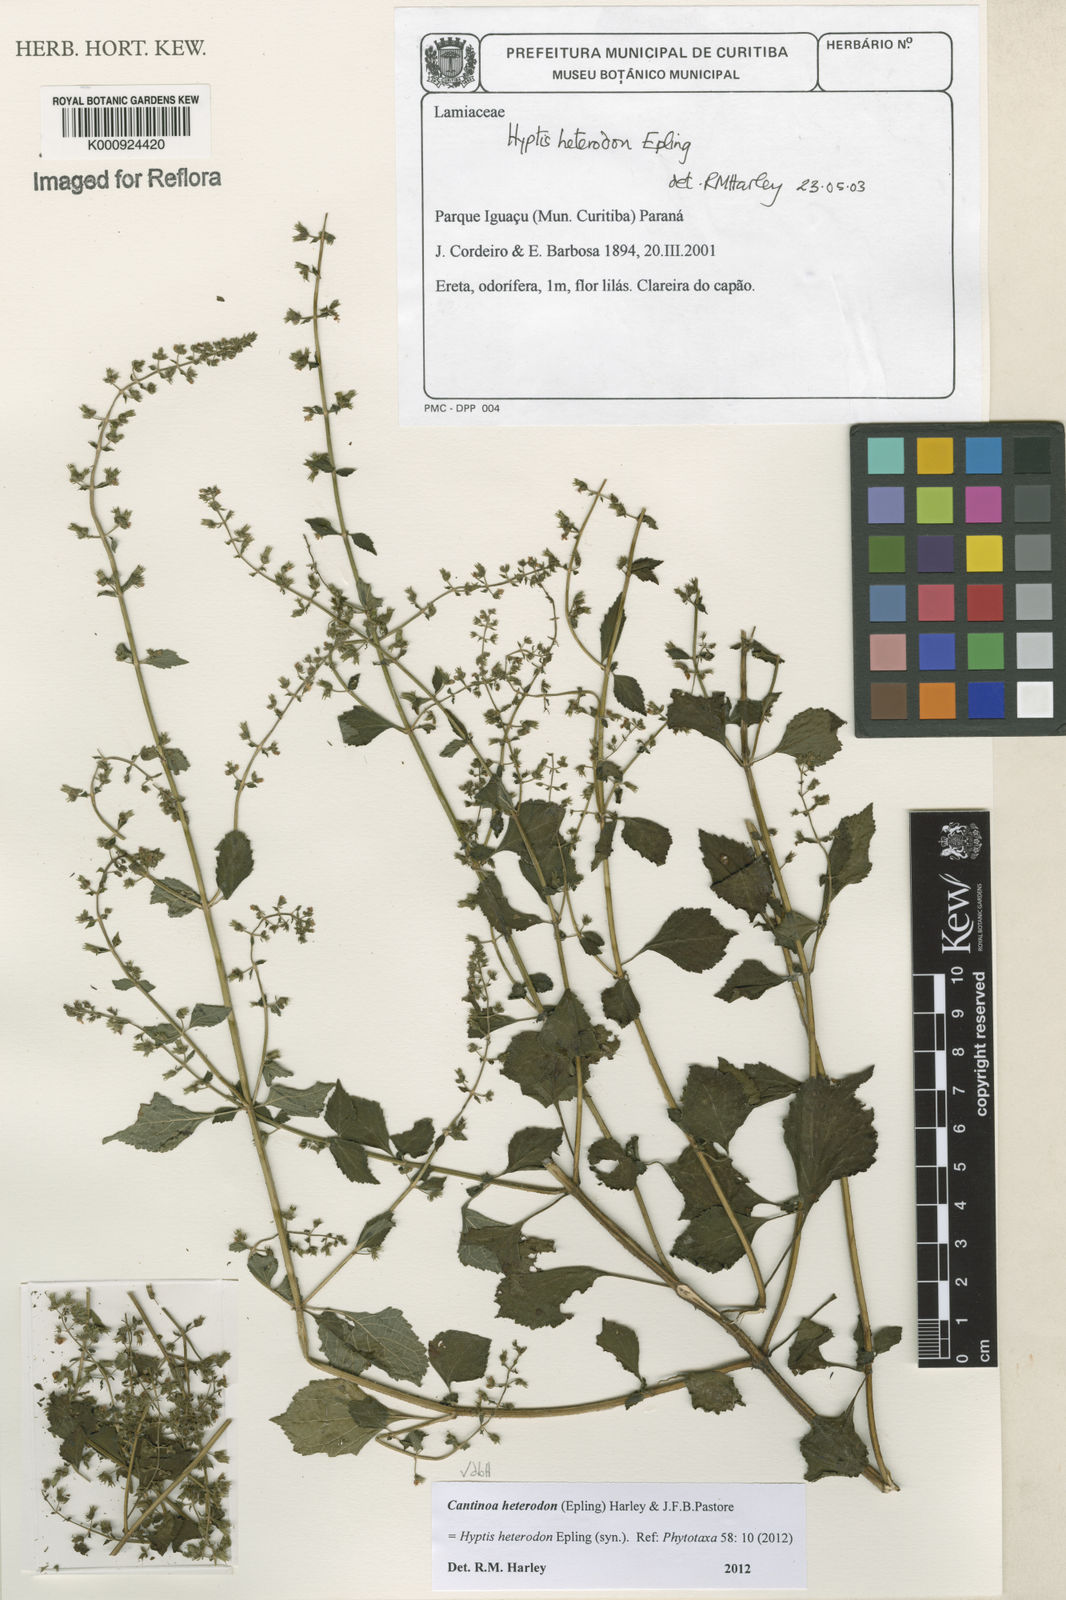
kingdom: Plantae
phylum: Tracheophyta
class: Magnoliopsida
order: Lamiales
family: Lamiaceae
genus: Cantinoa
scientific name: Cantinoa heterodon
